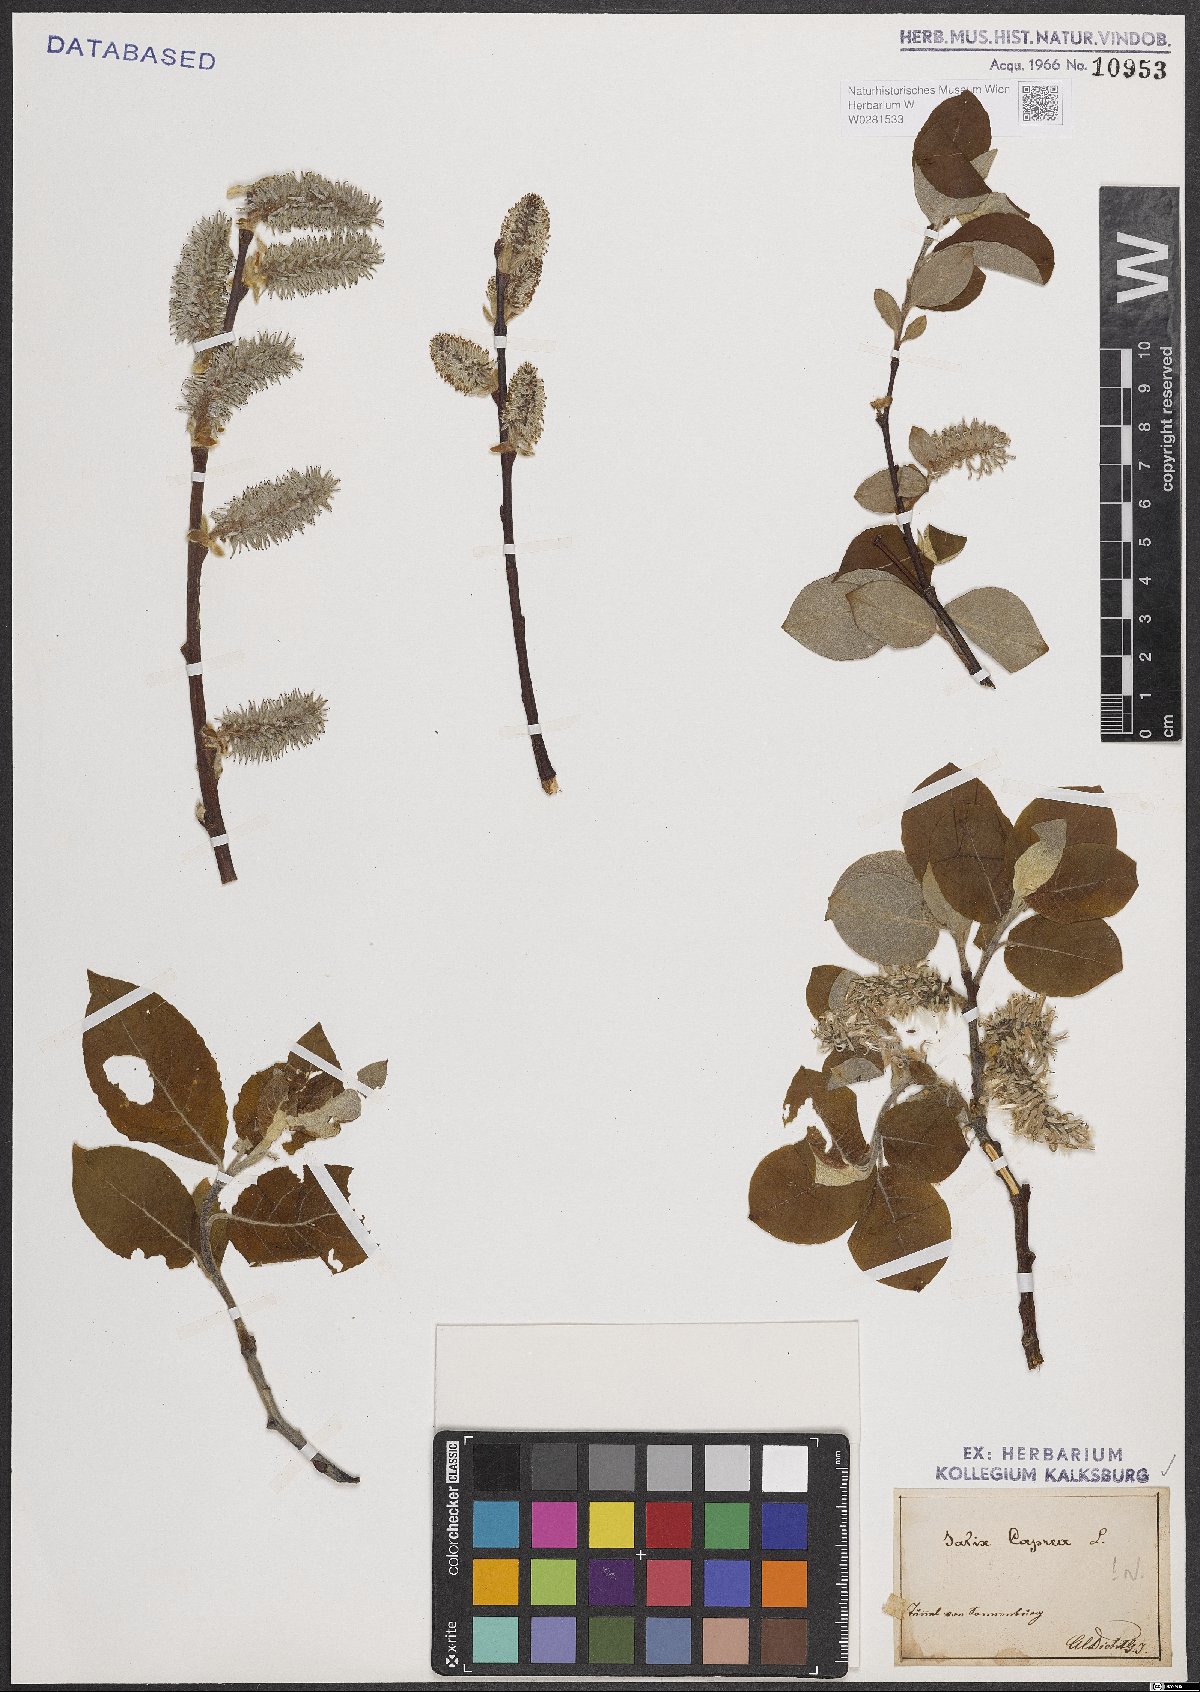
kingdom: Plantae
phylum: Tracheophyta
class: Magnoliopsida
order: Malpighiales
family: Salicaceae
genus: Salix
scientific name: Salix caprea
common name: Goat willow
